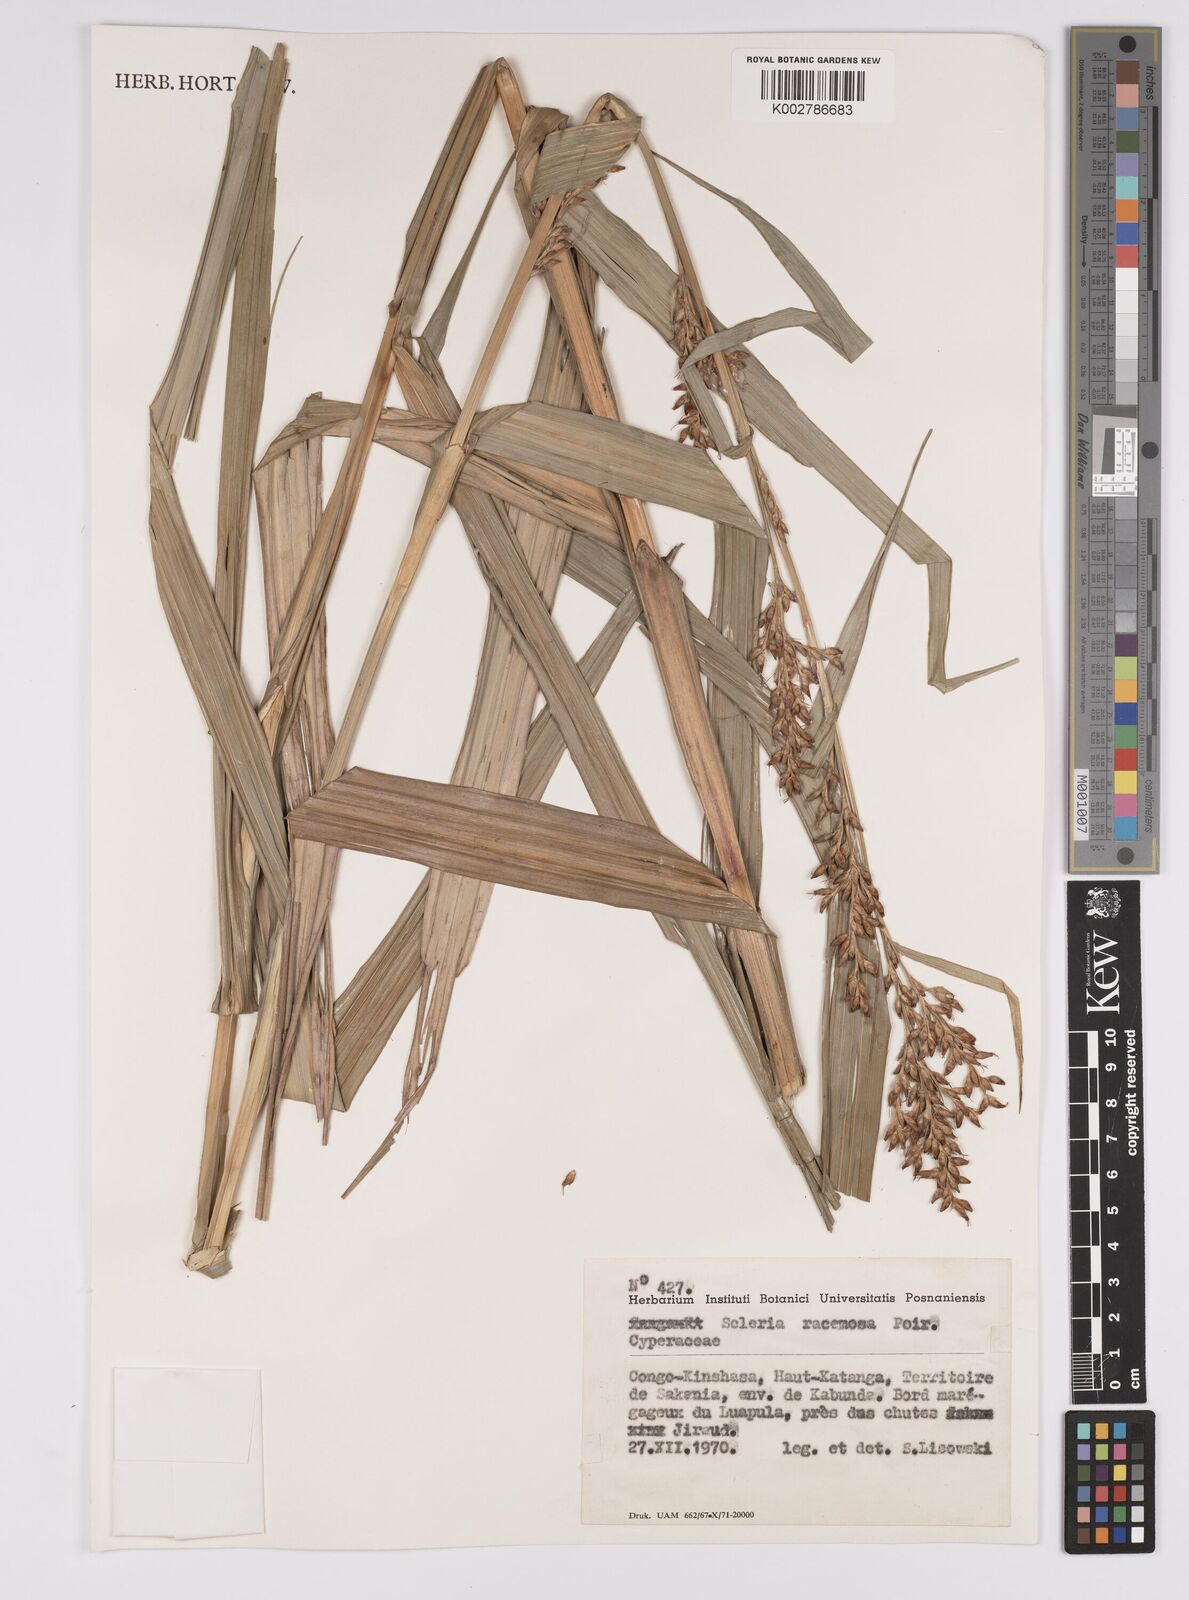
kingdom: Plantae
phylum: Tracheophyta
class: Liliopsida
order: Poales
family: Cyperaceae
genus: Scleria
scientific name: Scleria racemosa
